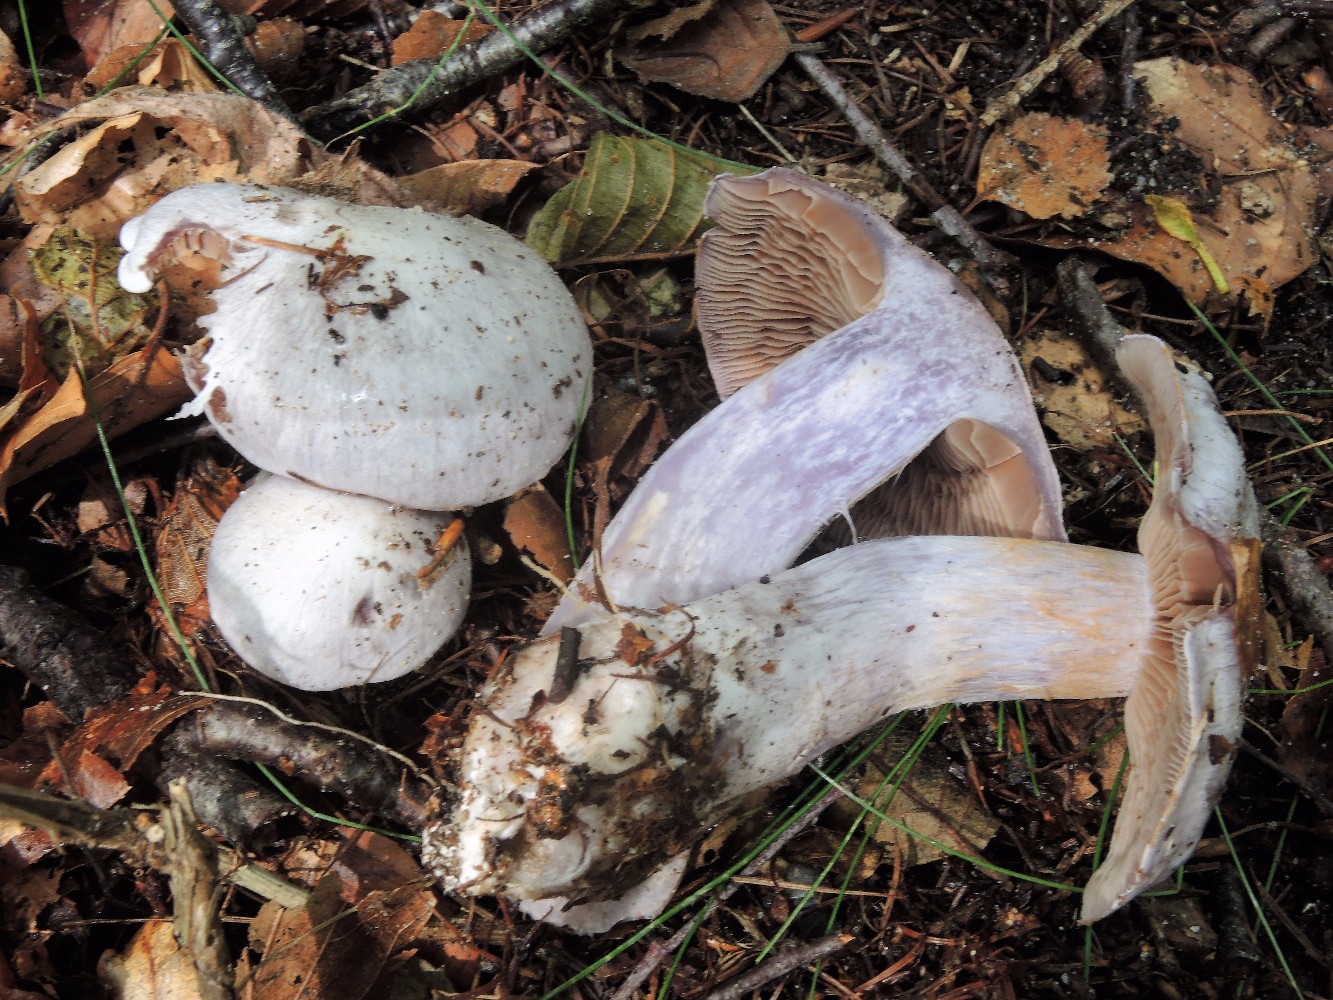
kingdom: Fungi
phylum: Basidiomycota
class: Agaricomycetes
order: Agaricales
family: Cortinariaceae
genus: Cortinarius
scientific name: Cortinarius alboviolaceus
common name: lysviolet slørhat
